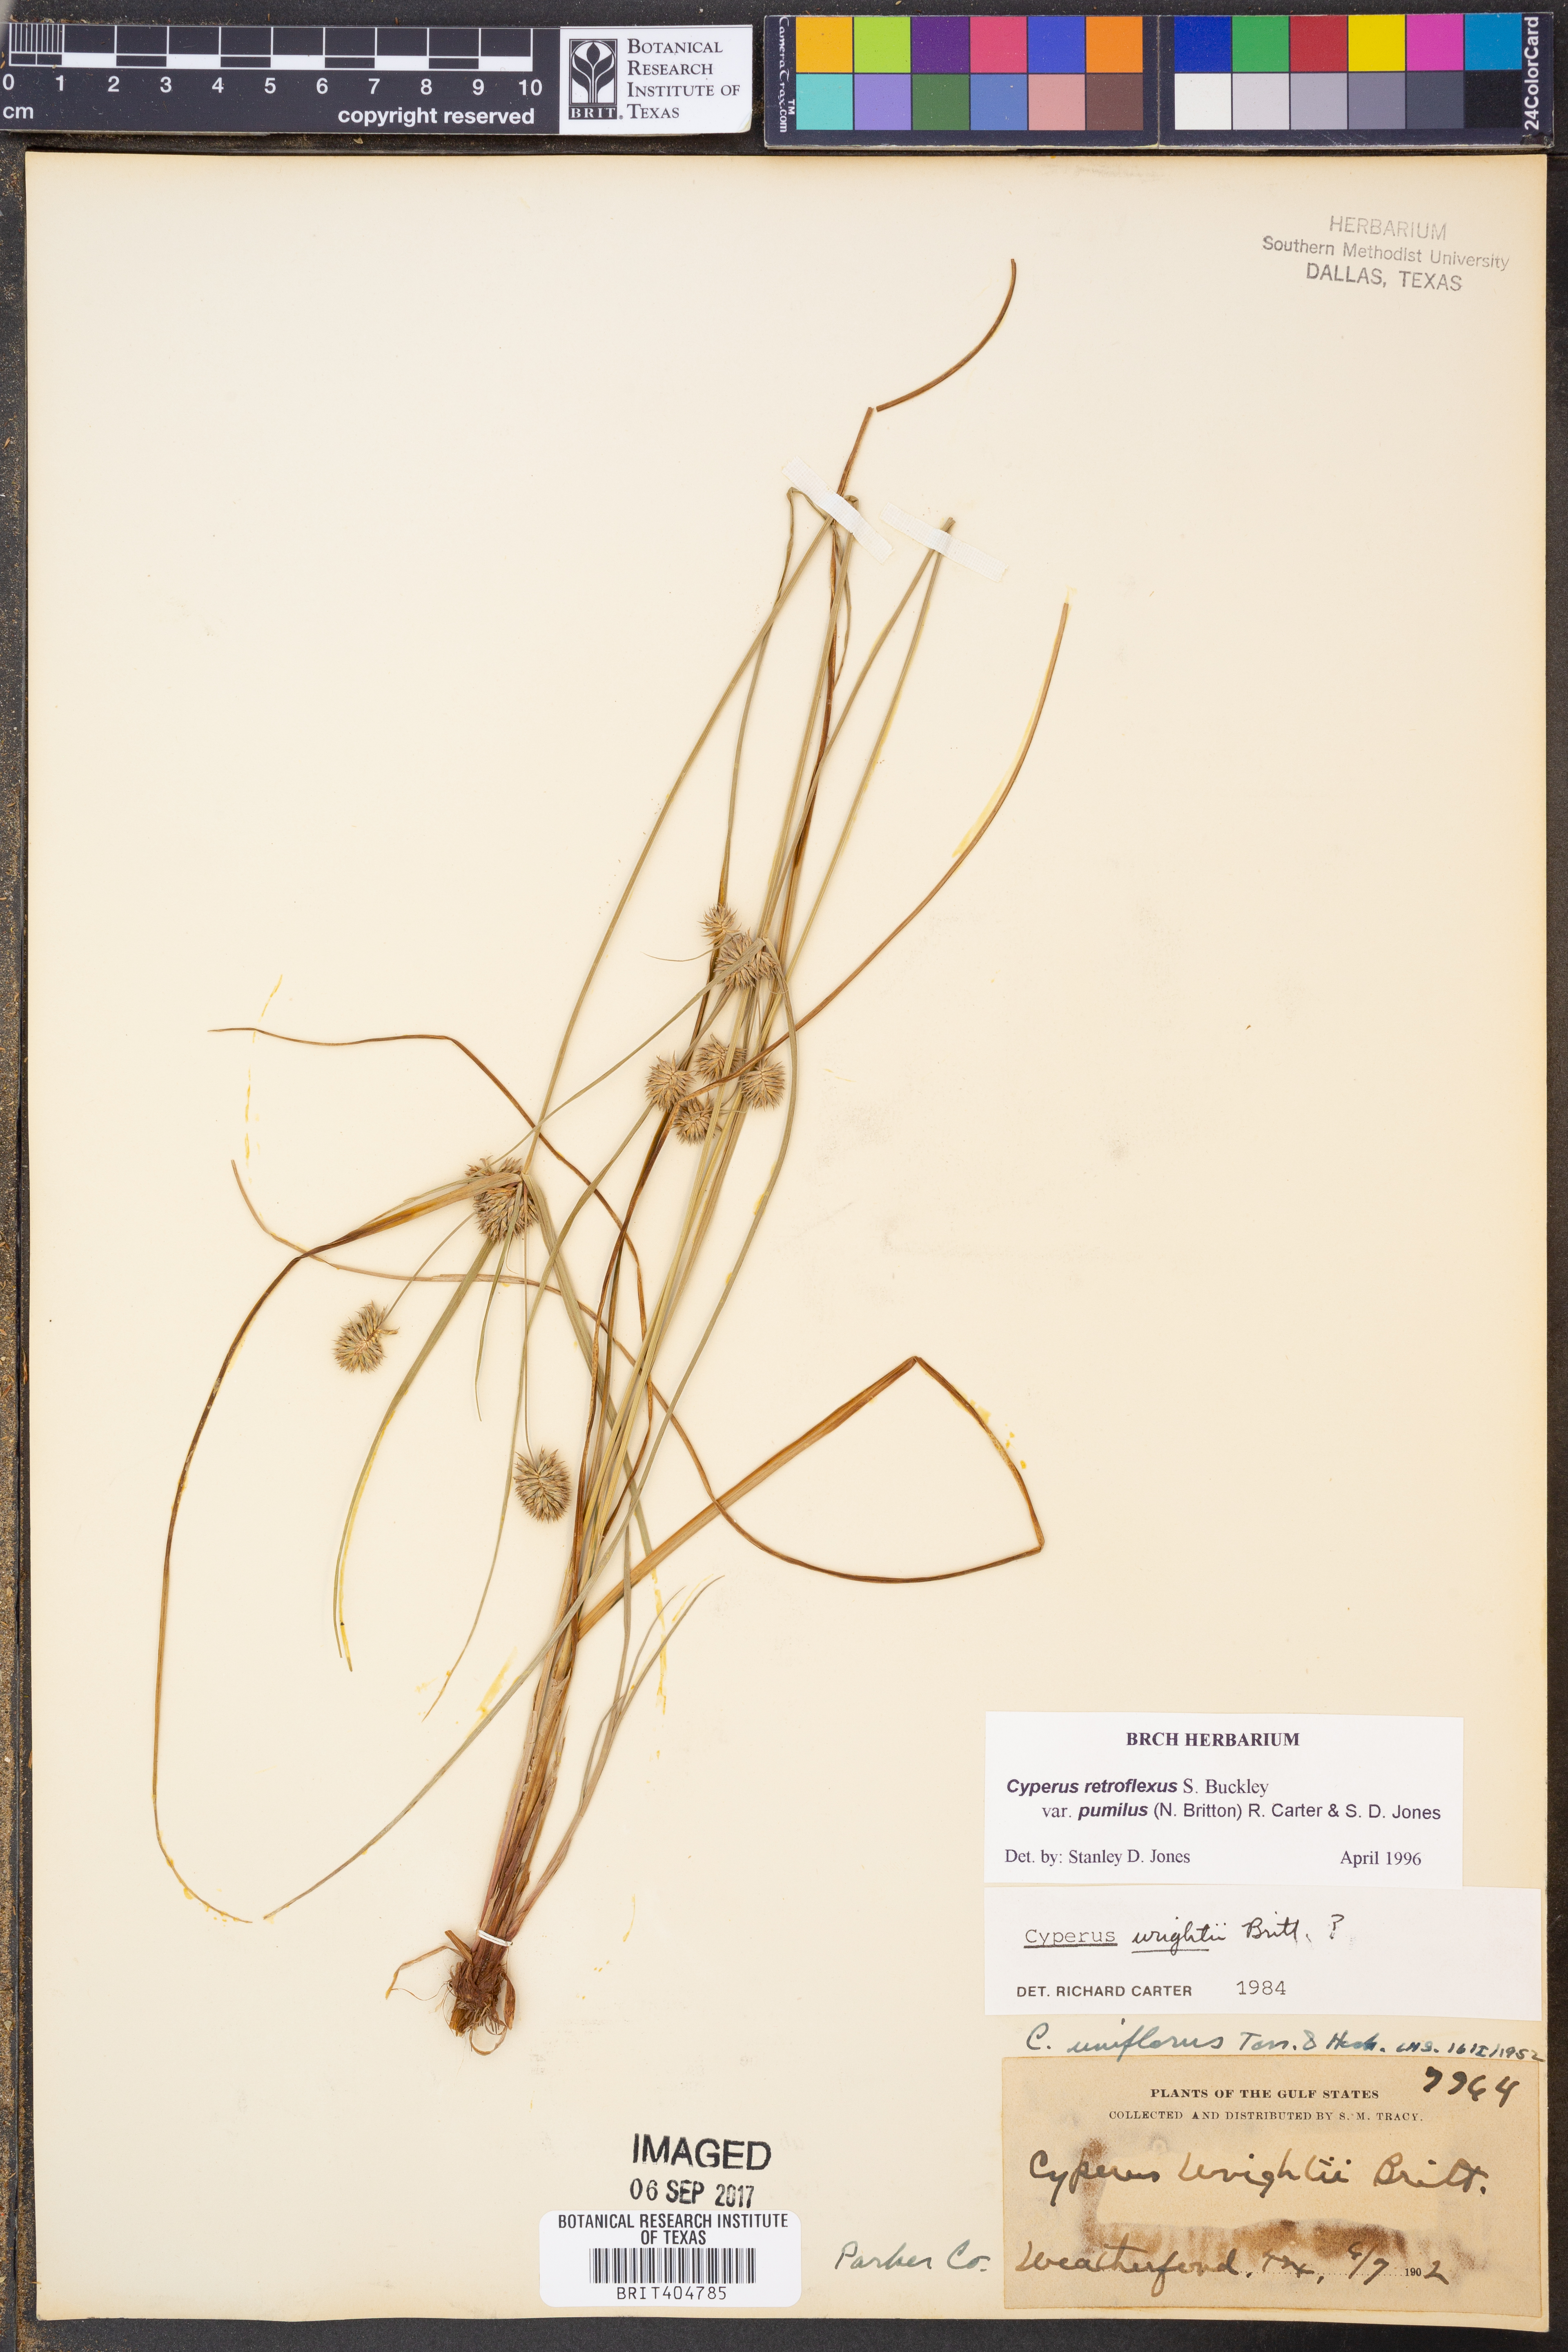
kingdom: Plantae
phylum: Tracheophyta
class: Liliopsida
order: Poales
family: Cyperaceae
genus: Cyperus
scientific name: Cyperus retroflexus
